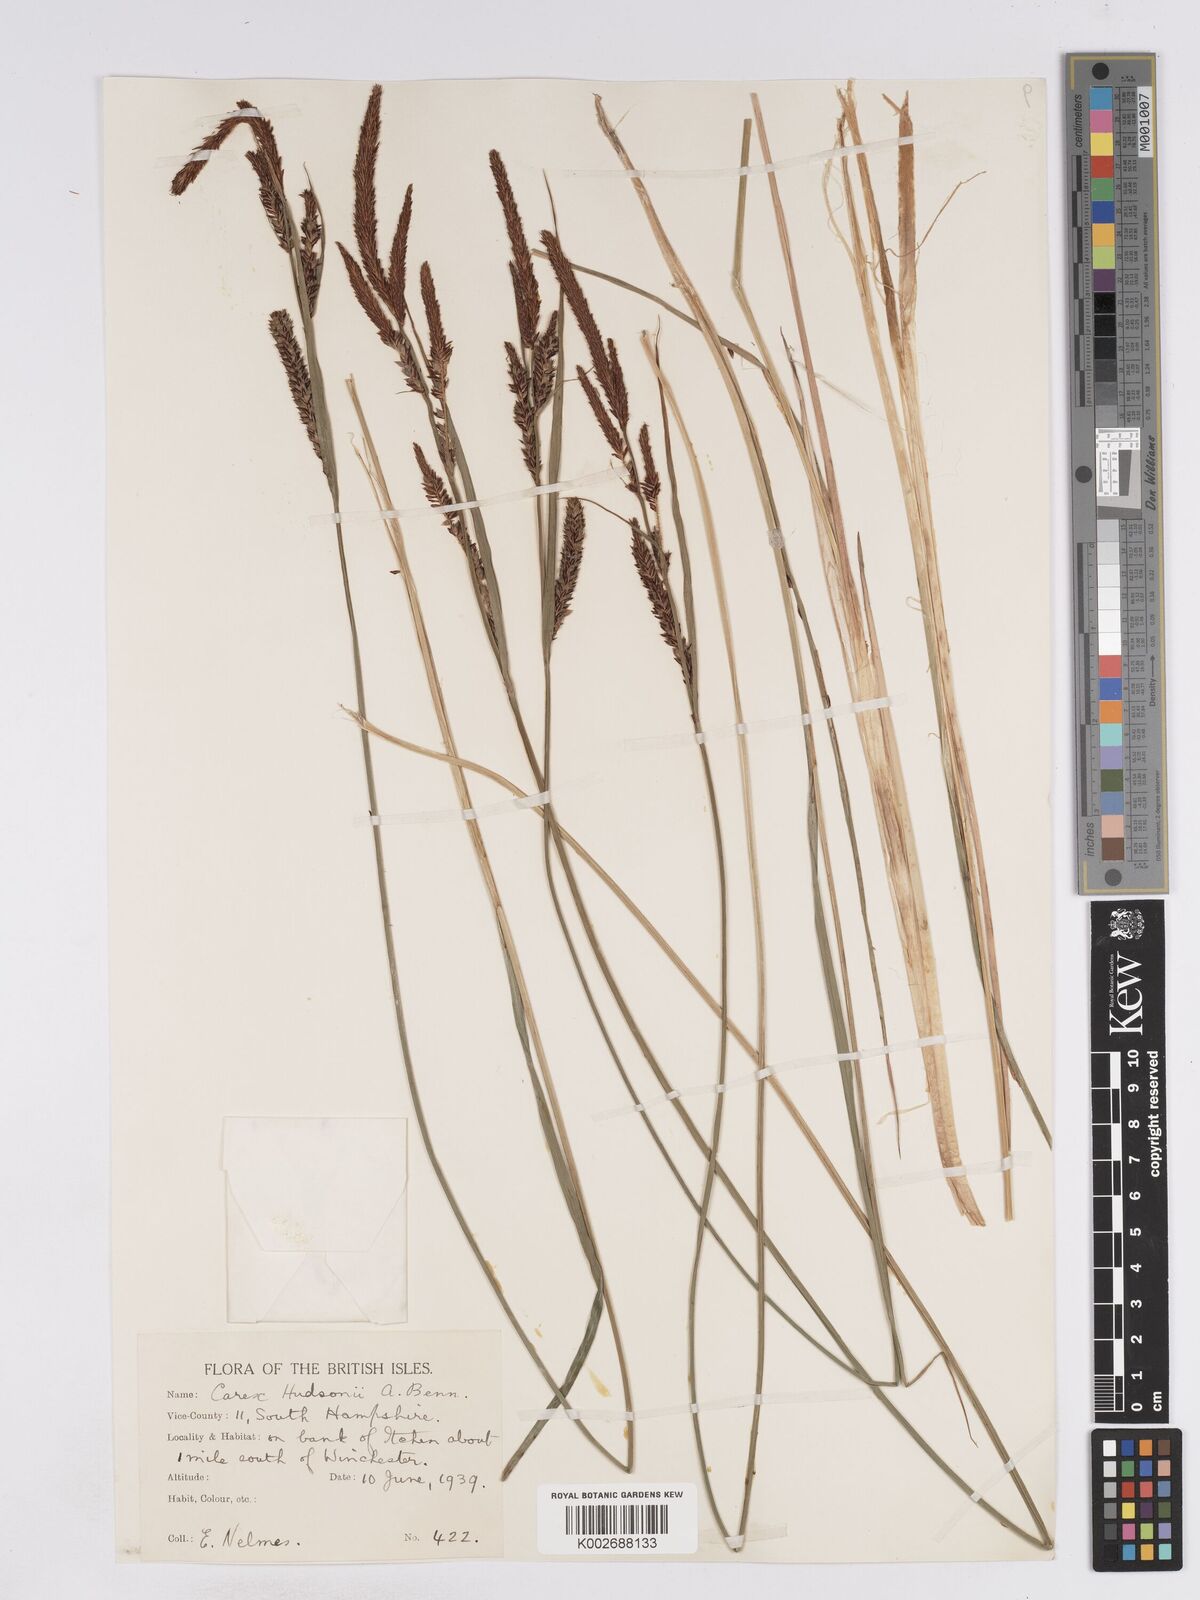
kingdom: Plantae
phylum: Tracheophyta
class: Liliopsida
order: Poales
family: Cyperaceae
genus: Carex
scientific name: Carex elata
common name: Tufted sedge
